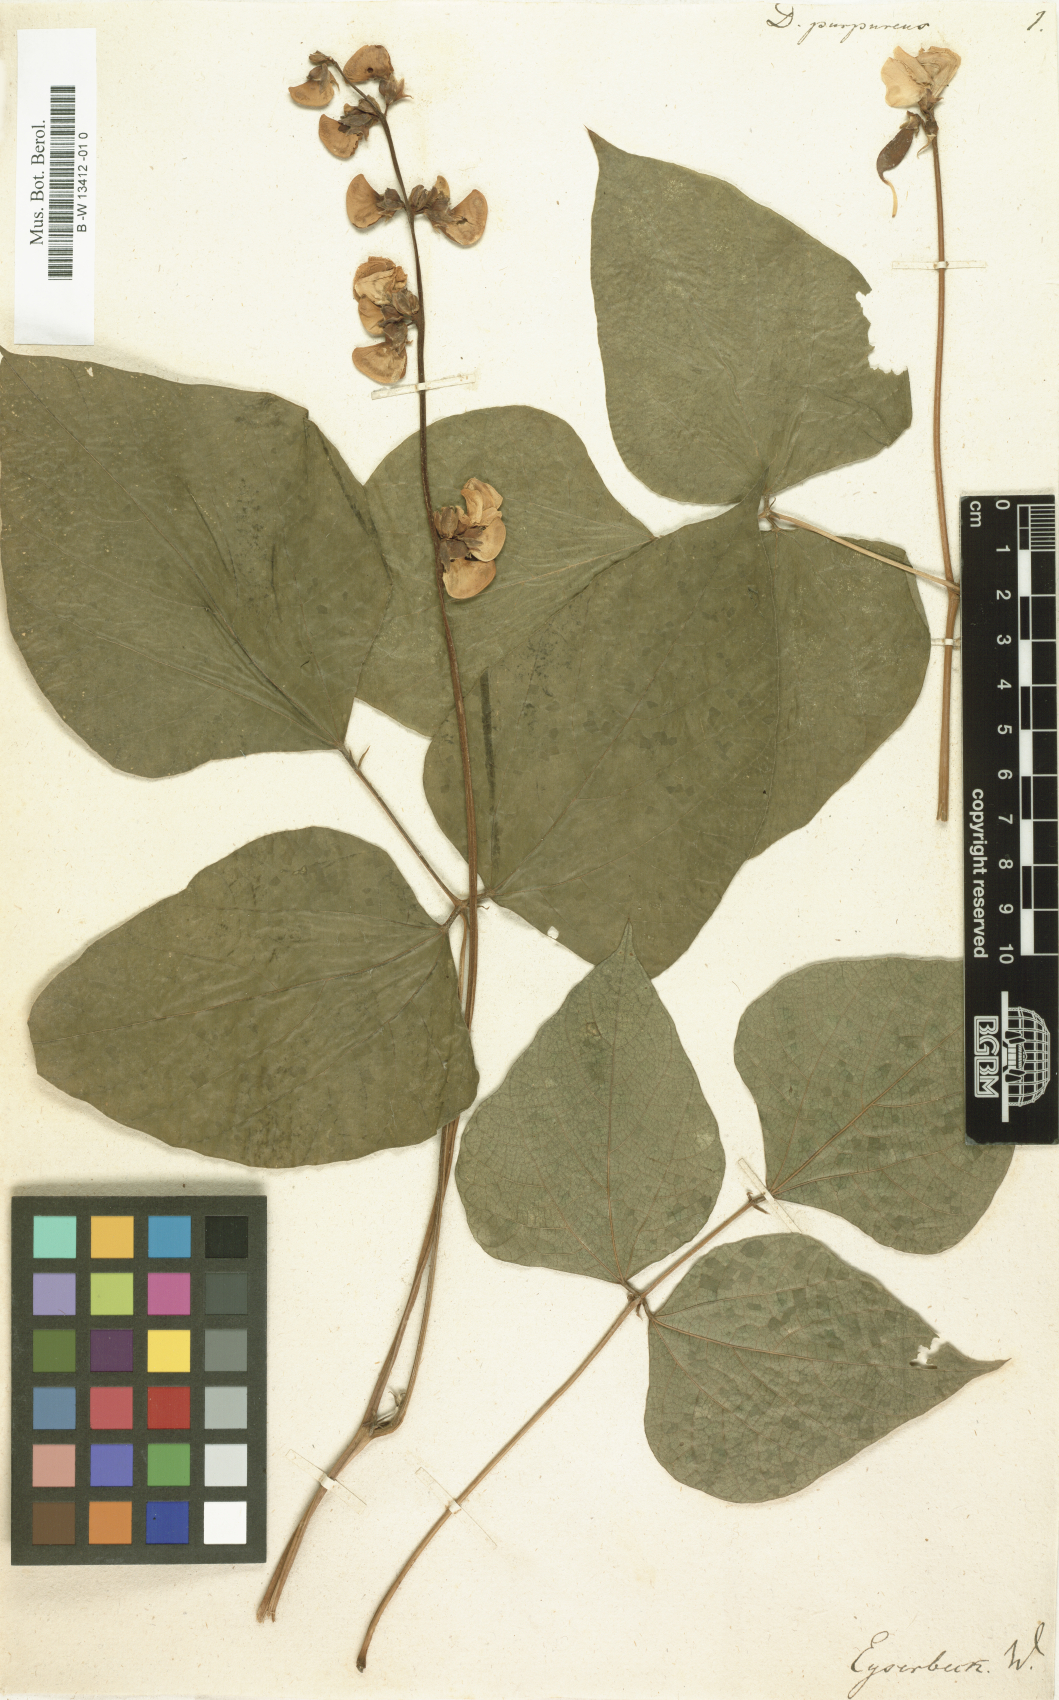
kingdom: Plantae
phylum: Tracheophyta
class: Magnoliopsida
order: Fabales
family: Fabaceae
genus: Lablab
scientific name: Lablab purpureus
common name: Lablab-bean
